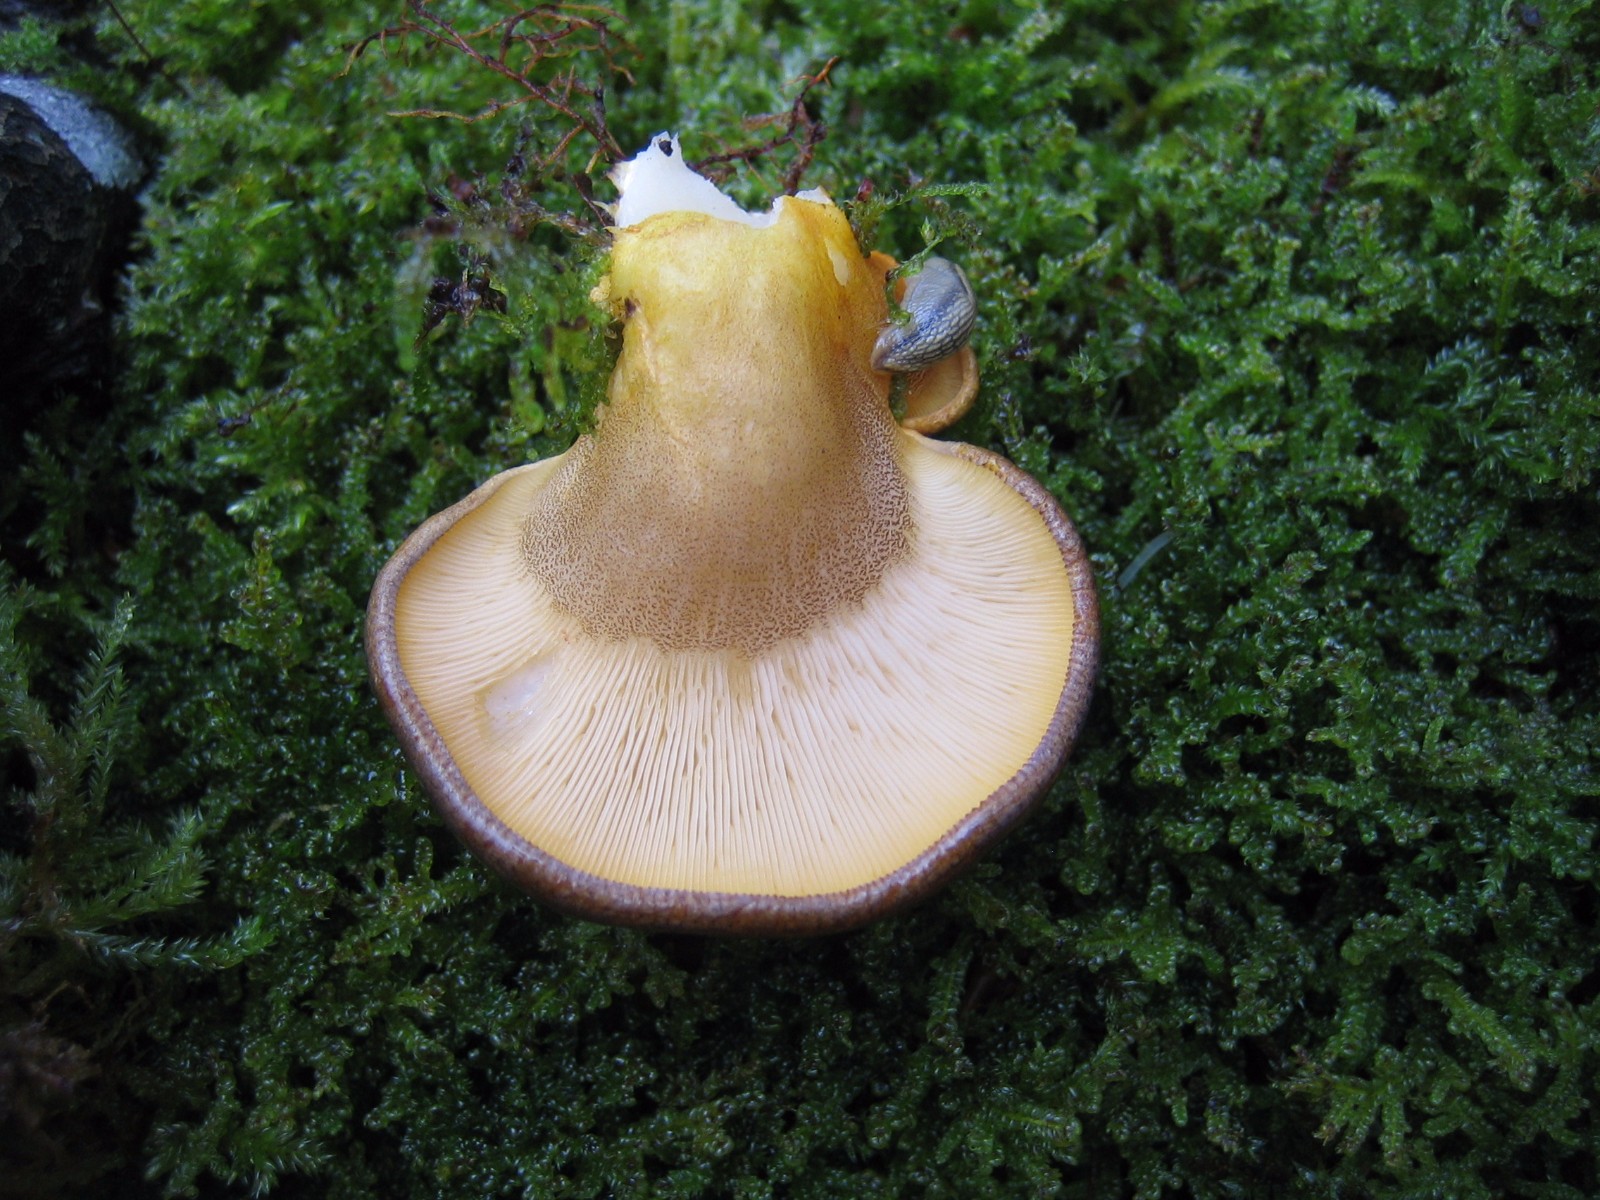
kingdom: Fungi
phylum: Basidiomycota
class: Agaricomycetes
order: Agaricales
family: Sarcomyxaceae
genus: Sarcomyxa
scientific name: Sarcomyxa serotina
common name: gummihat
